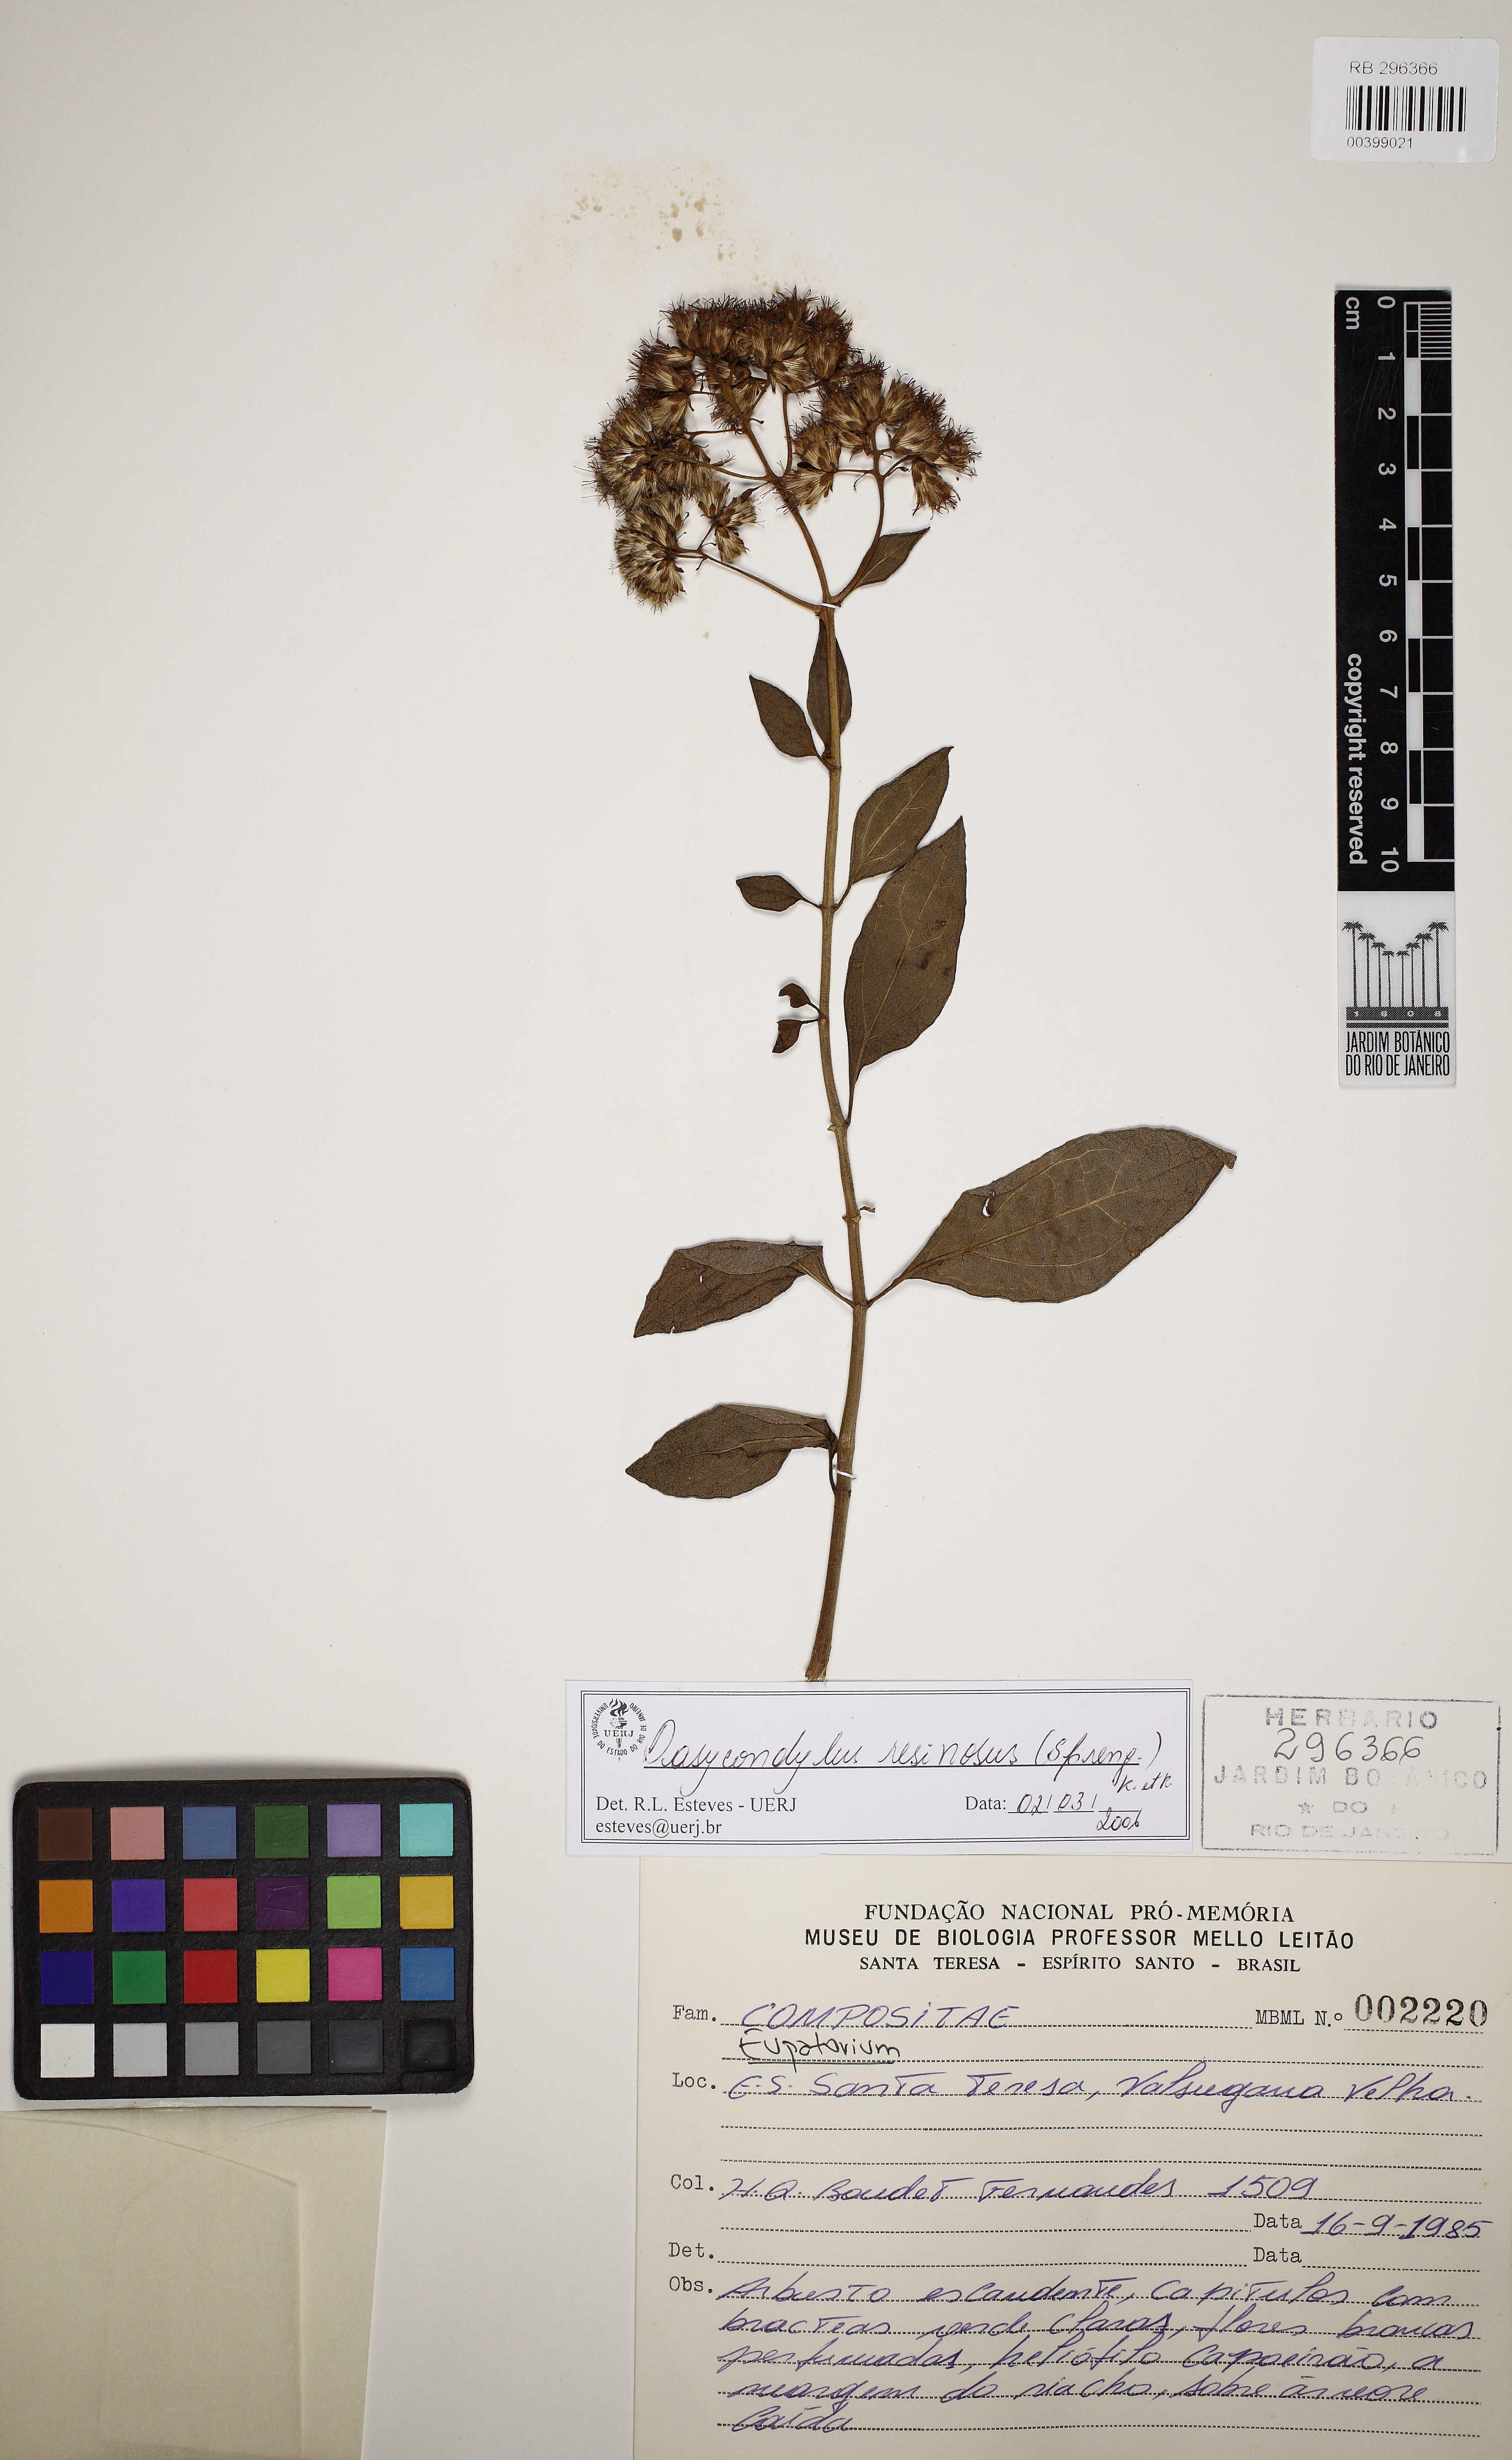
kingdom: Plantae
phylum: Tracheophyta
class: Magnoliopsida
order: Asterales
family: Asteraceae
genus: Dasycondylus
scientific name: Dasycondylus resinosus
